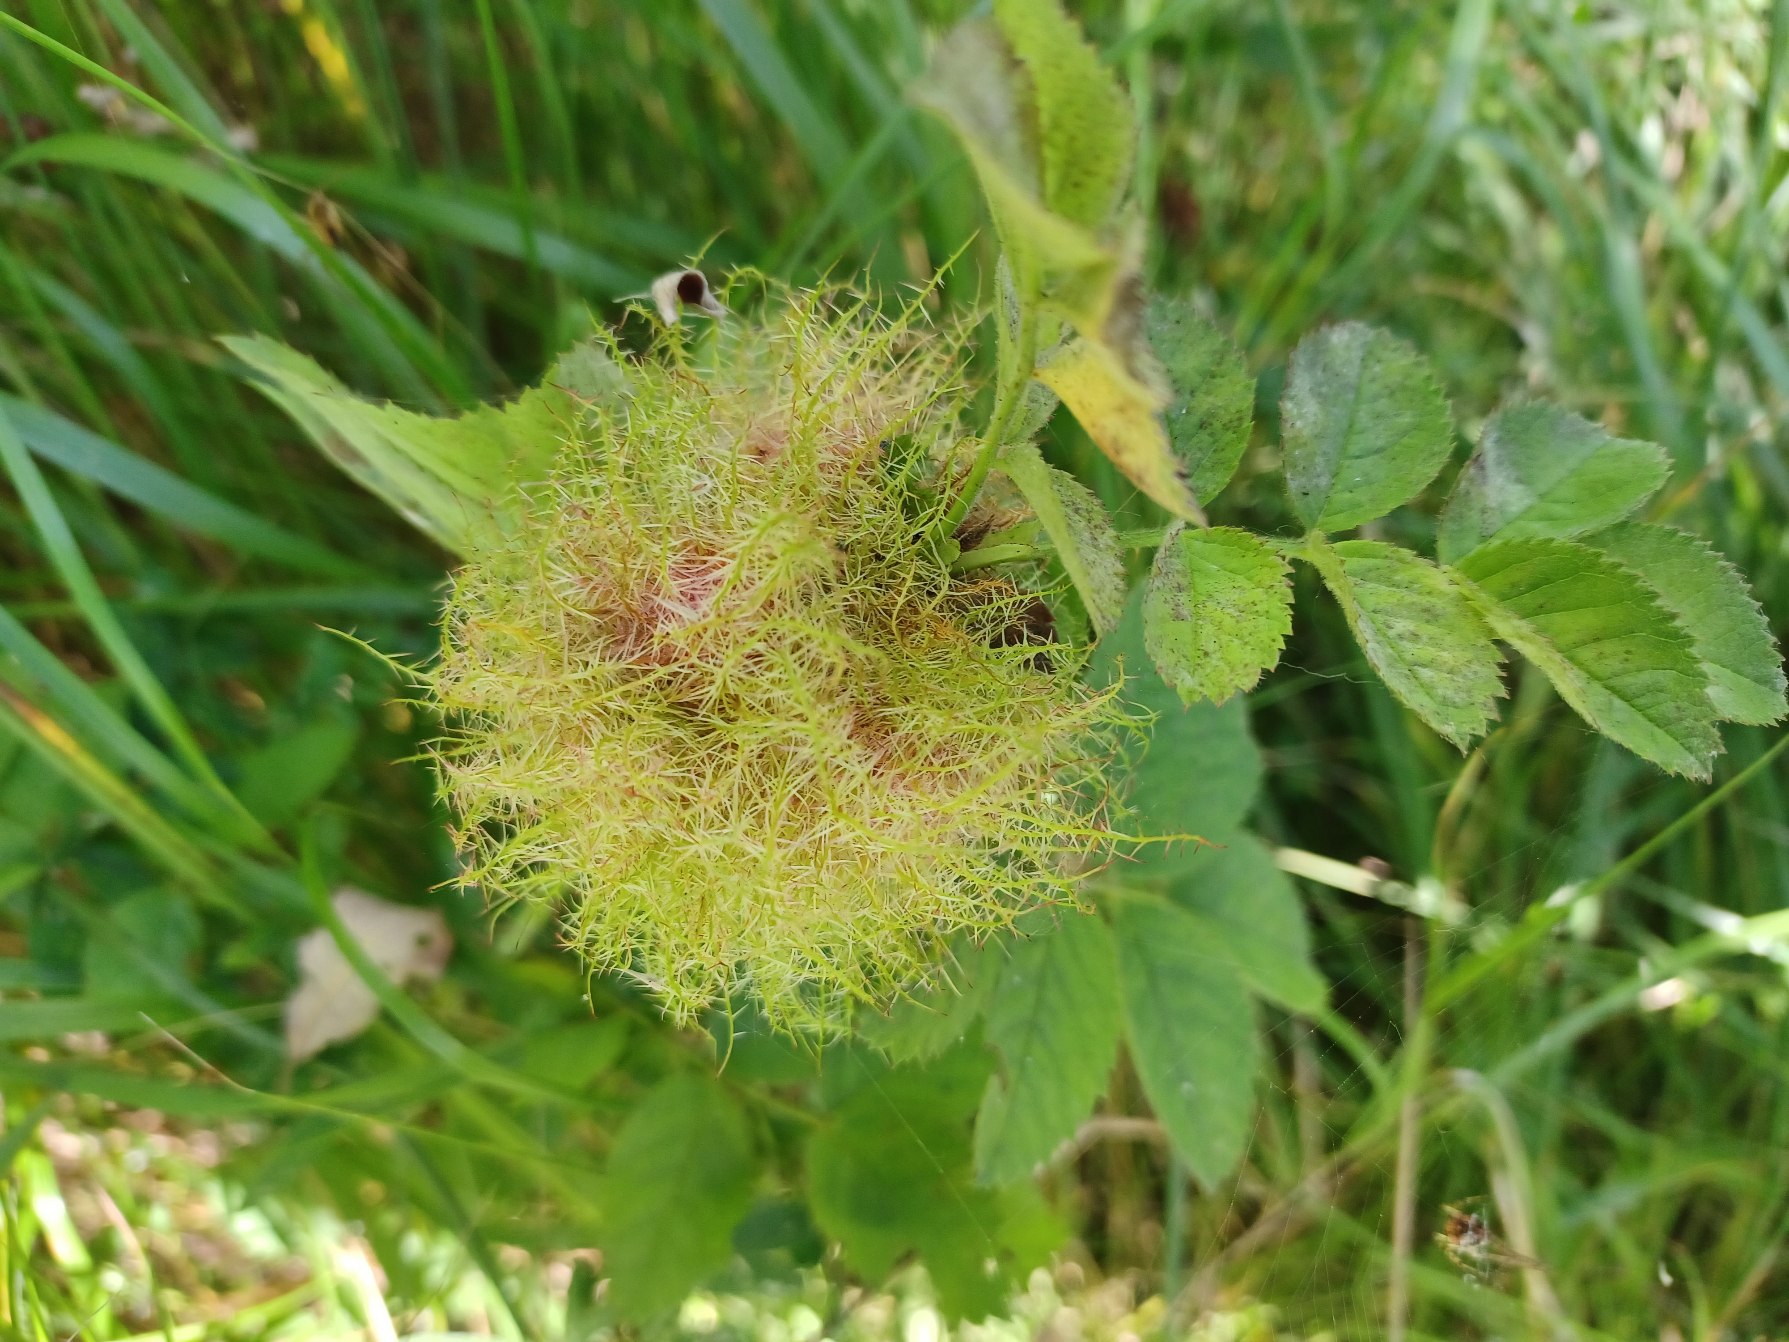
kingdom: Animalia
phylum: Arthropoda
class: Insecta
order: Hymenoptera
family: Cynipidae
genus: Diplolepis
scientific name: Diplolepis rosae
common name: Bedeguargalhveps
